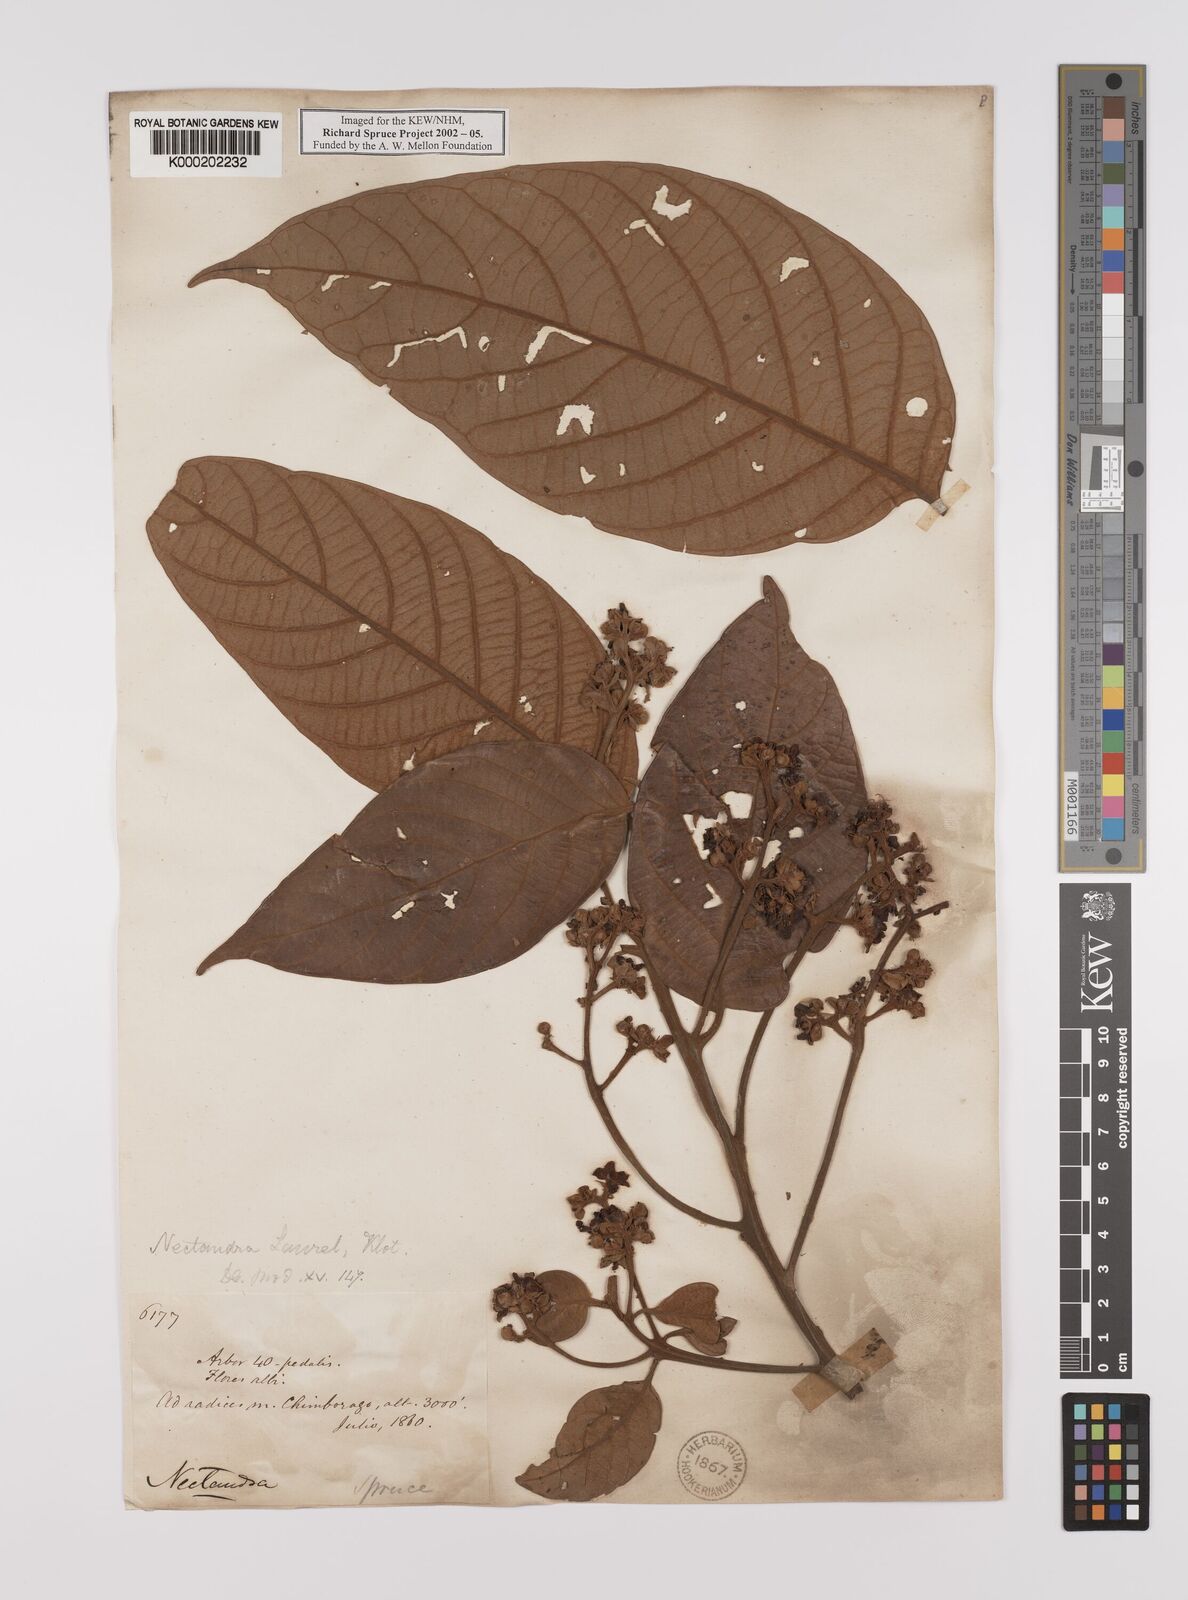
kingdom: Plantae
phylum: Tracheophyta
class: Magnoliopsida
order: Laurales
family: Lauraceae
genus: Nectandra
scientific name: Nectandra laurel
